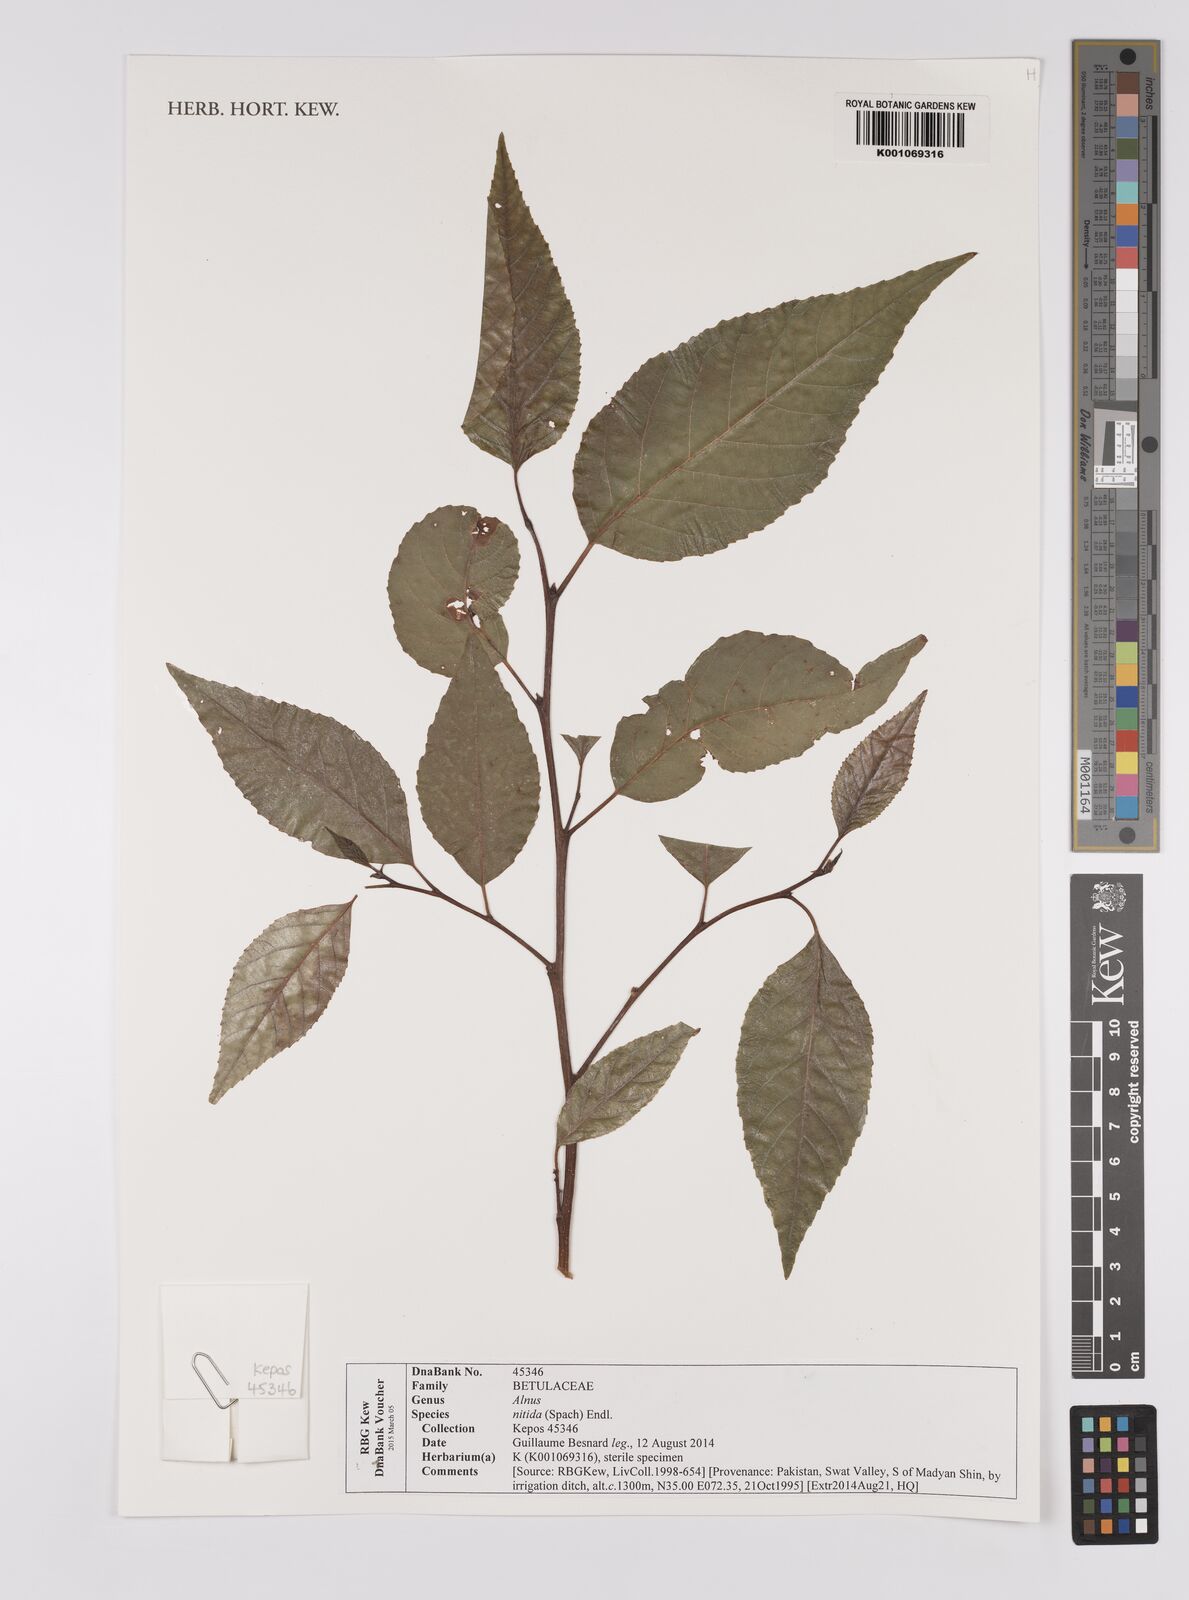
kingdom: Plantae
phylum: Tracheophyta
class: Magnoliopsida
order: Fagales
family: Betulaceae
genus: Alnus
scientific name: Alnus nitida
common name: West himalayan alder
